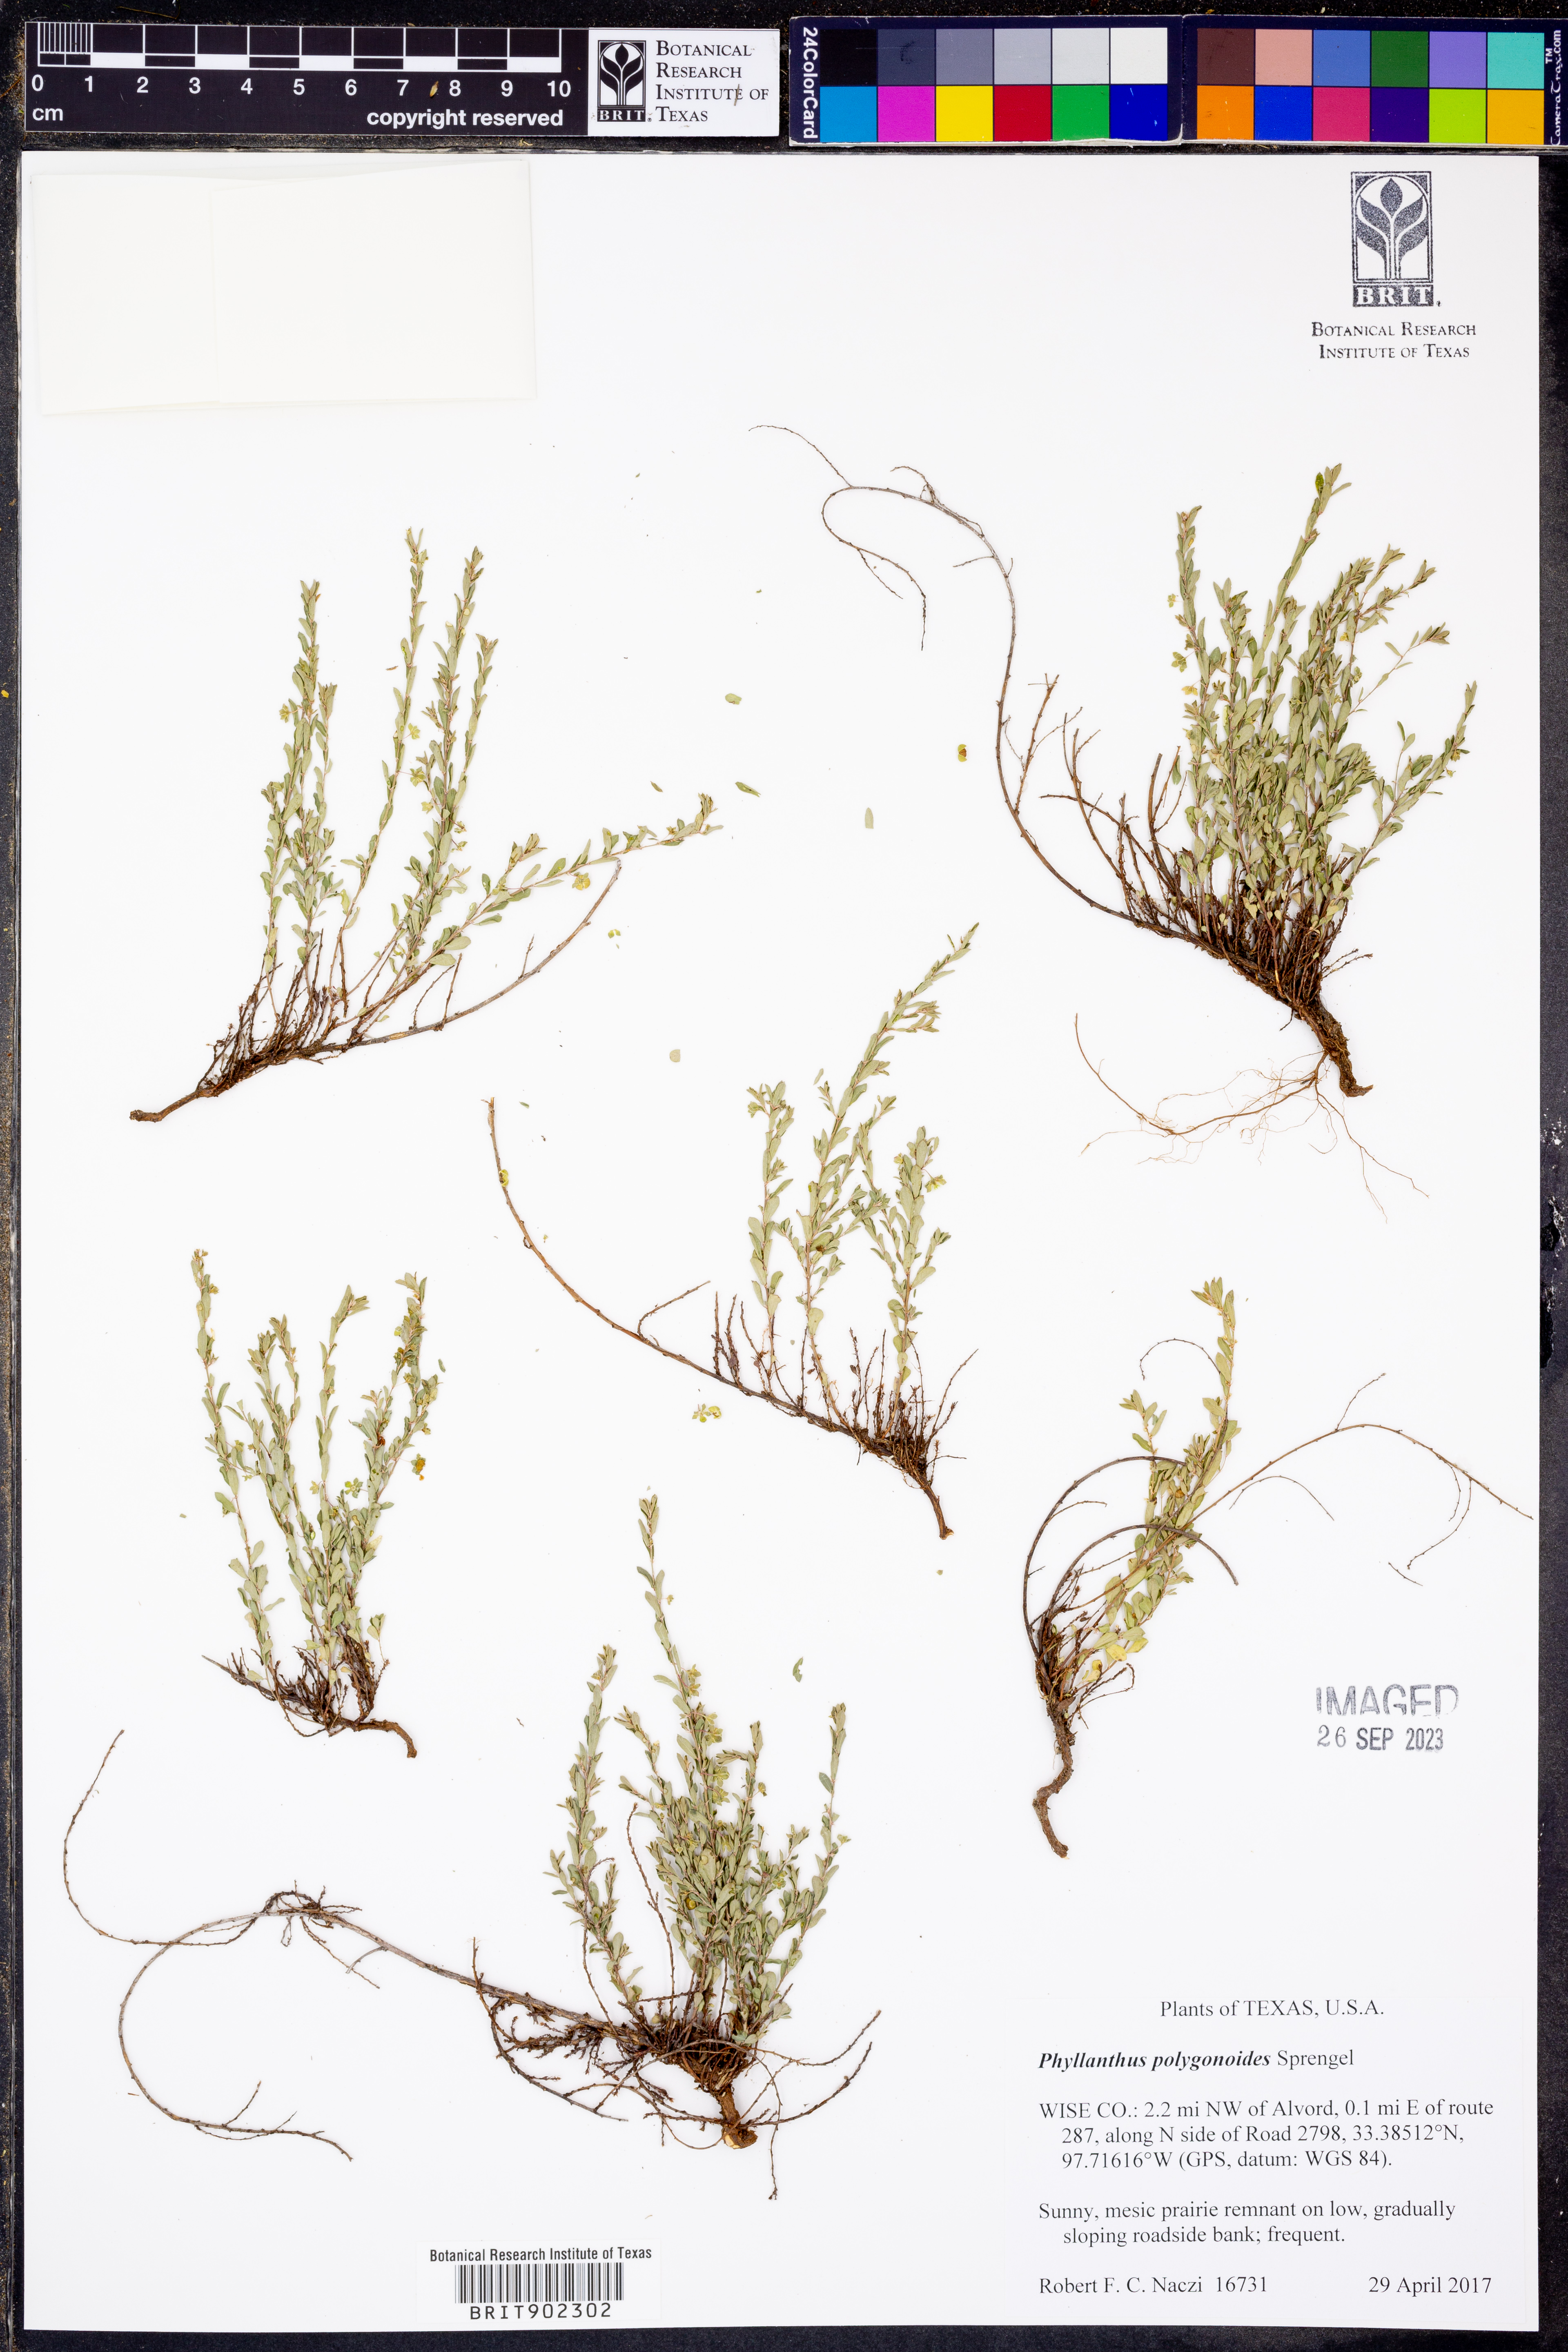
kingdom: Plantae
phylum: Tracheophyta
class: Magnoliopsida
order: Malpighiales
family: Phyllanthaceae
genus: Phyllanthus
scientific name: Phyllanthus polygonoides
